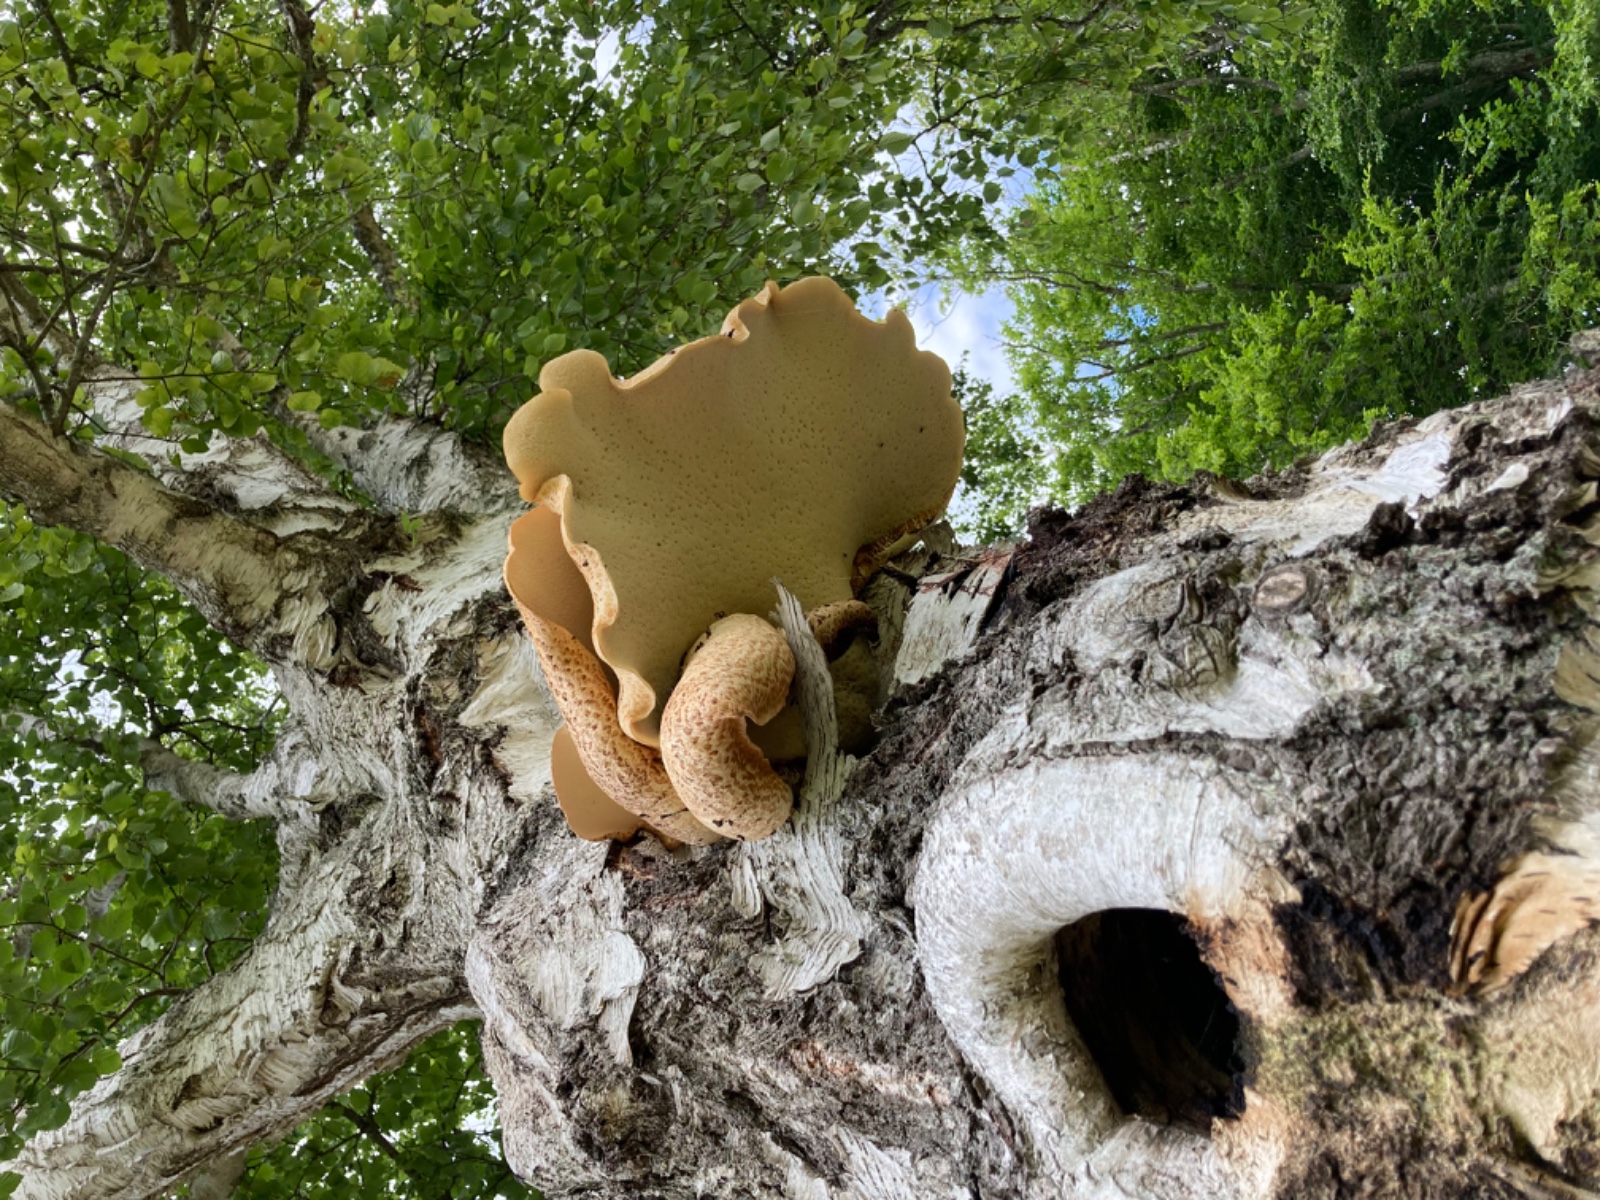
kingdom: Fungi
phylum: Basidiomycota
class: Agaricomycetes
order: Polyporales
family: Polyporaceae
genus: Cerioporus
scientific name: Cerioporus squamosus
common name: skællet stilkporesvamp
